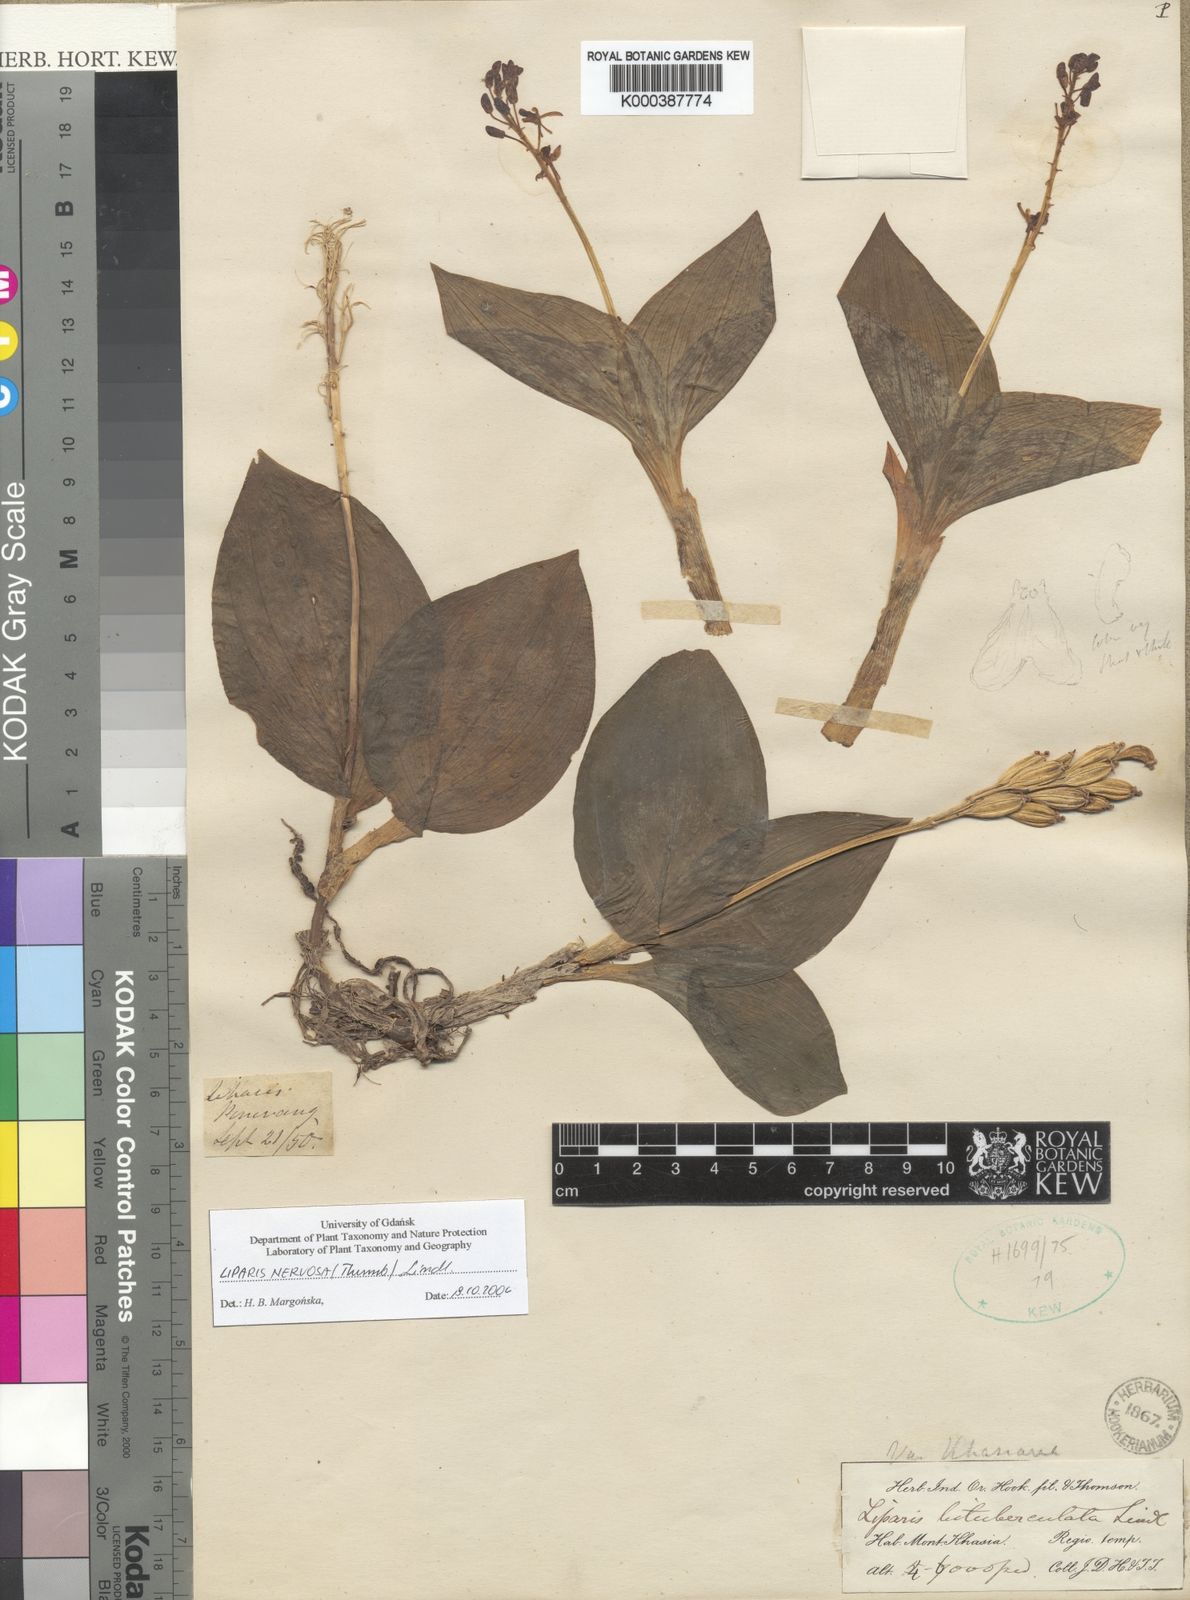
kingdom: Plantae
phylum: Tracheophyta
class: Liliopsida
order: Asparagales
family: Orchidaceae
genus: Liparis
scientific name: Liparis nervosa
